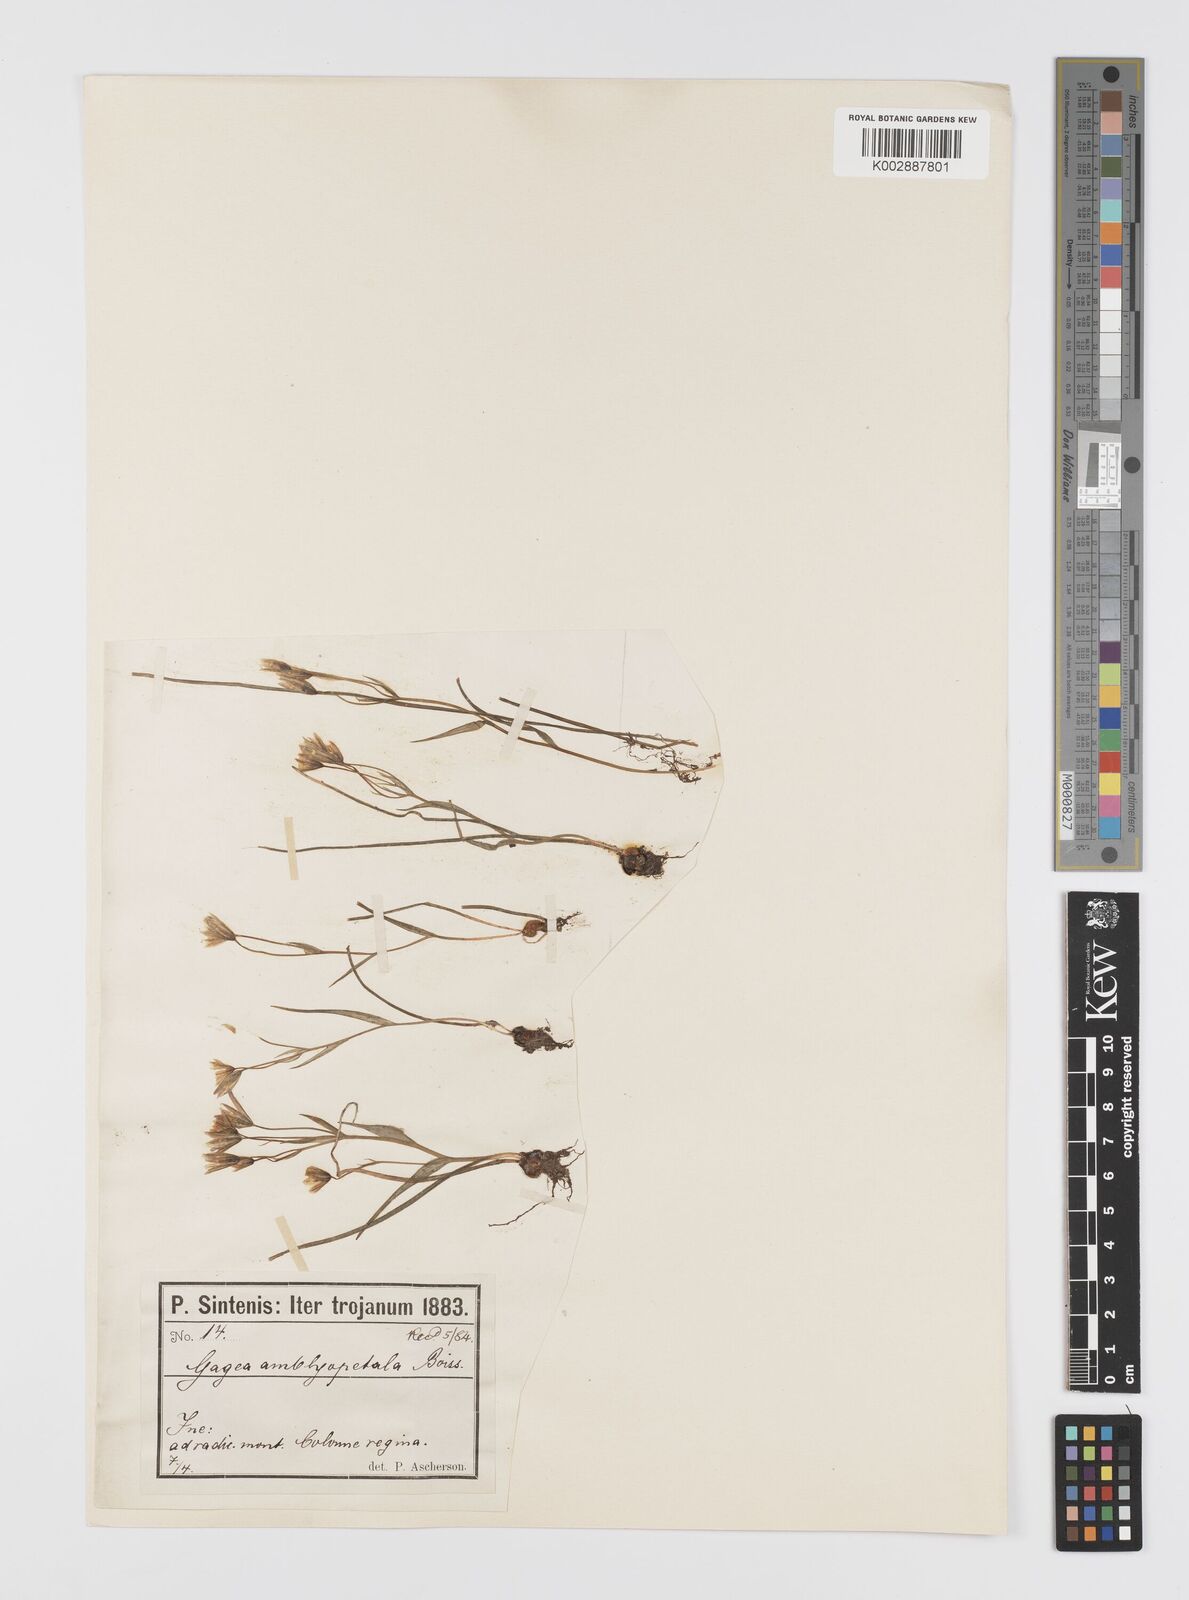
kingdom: Plantae
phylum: Tracheophyta
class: Liliopsida
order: Liliales
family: Liliaceae
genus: Gagea
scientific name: Gagea longifolia
